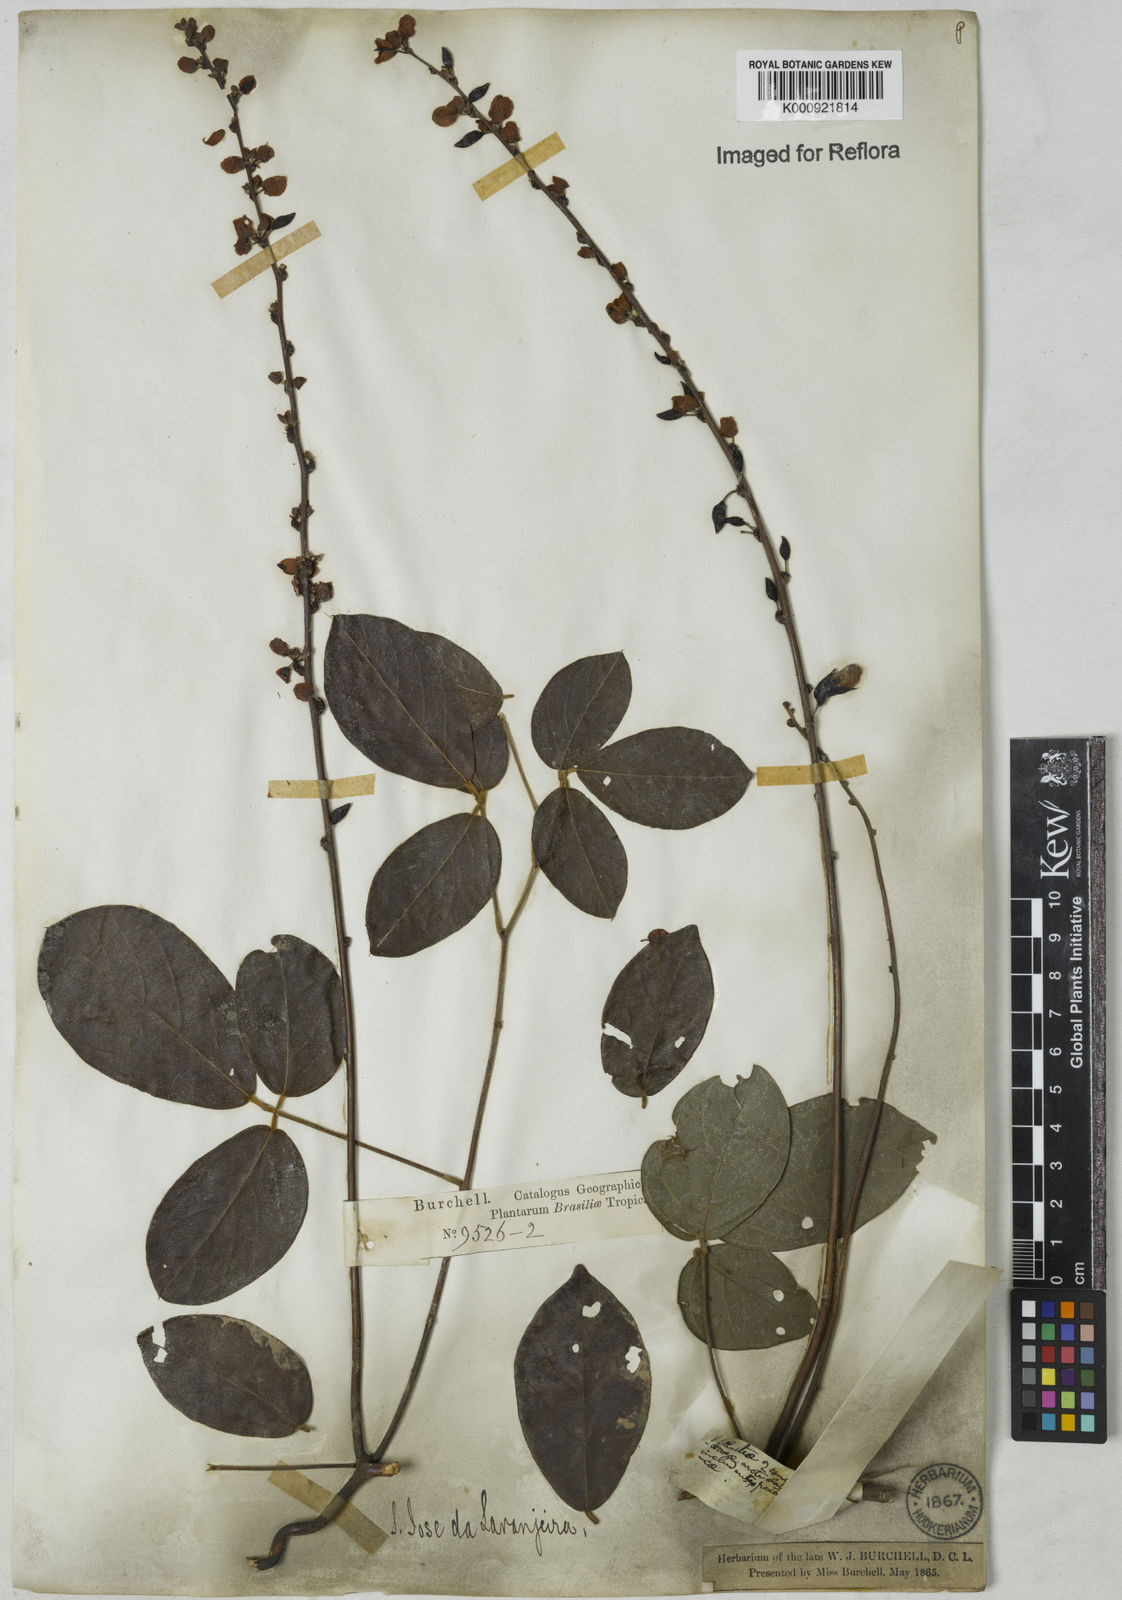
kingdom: Plantae
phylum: Tracheophyta
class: Magnoliopsida
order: Fabales
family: Fabaceae
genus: Dioclea
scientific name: Dioclea virgata
